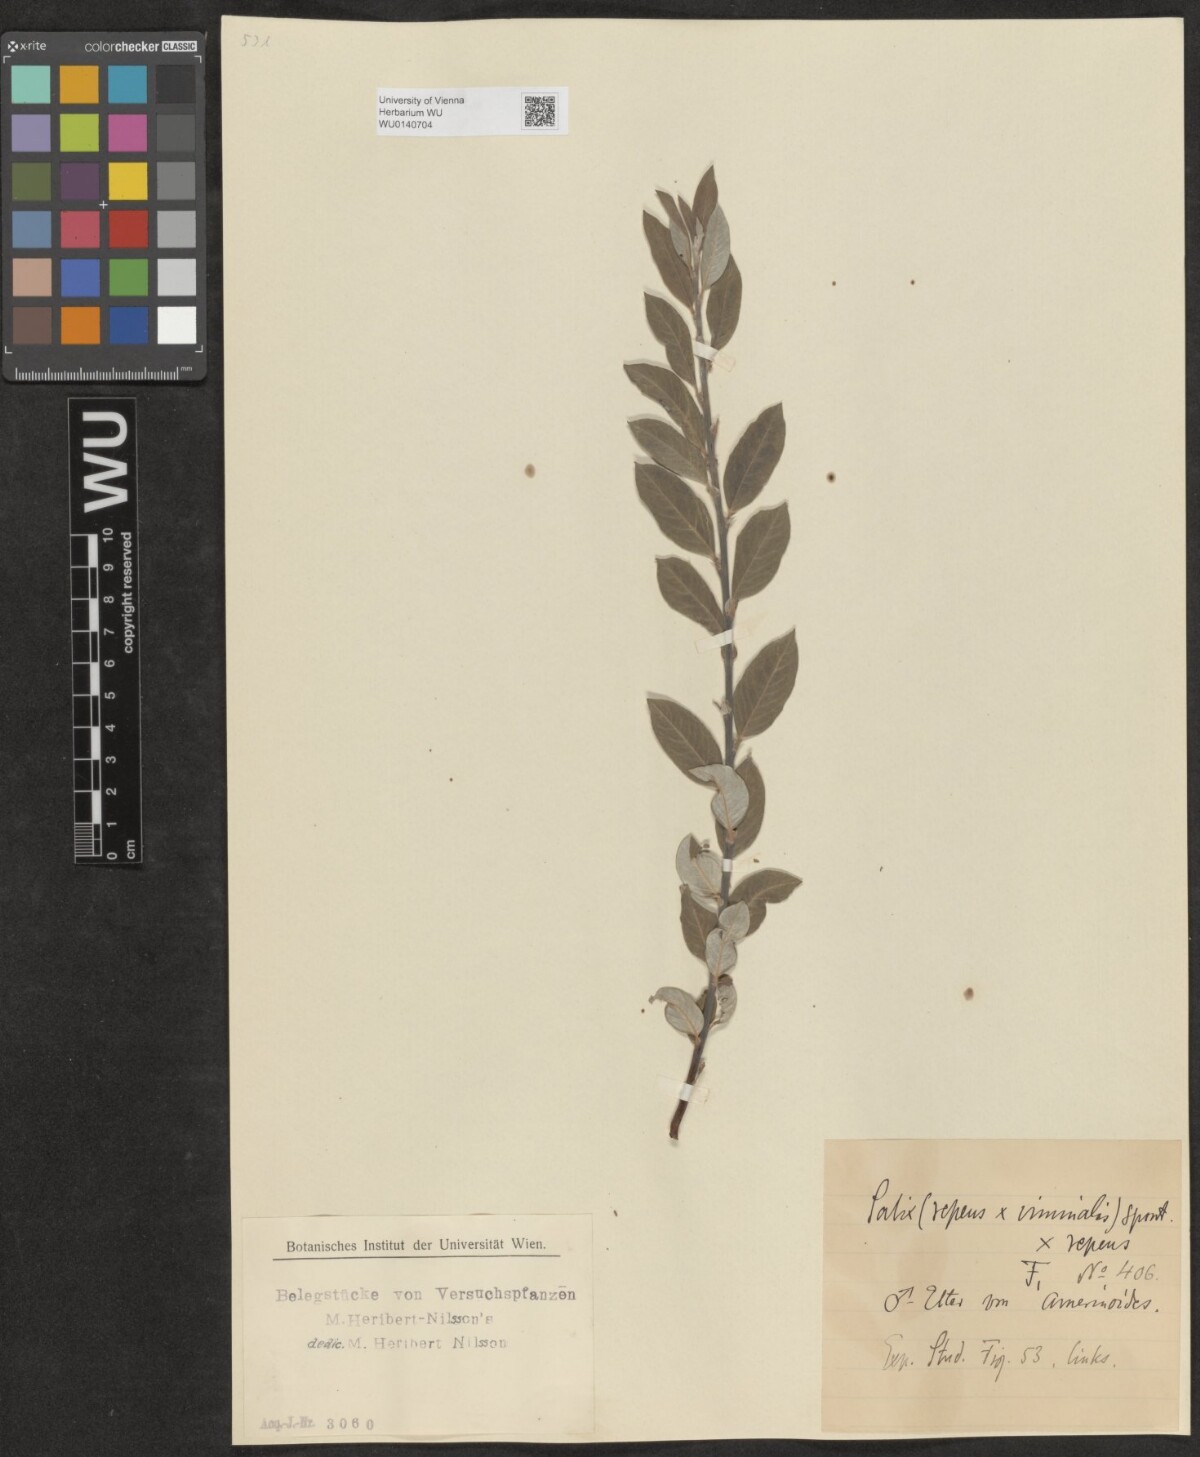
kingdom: Plantae
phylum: Tracheophyta
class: Magnoliopsida
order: Malpighiales
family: Salicaceae
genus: Salix
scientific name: Salix
